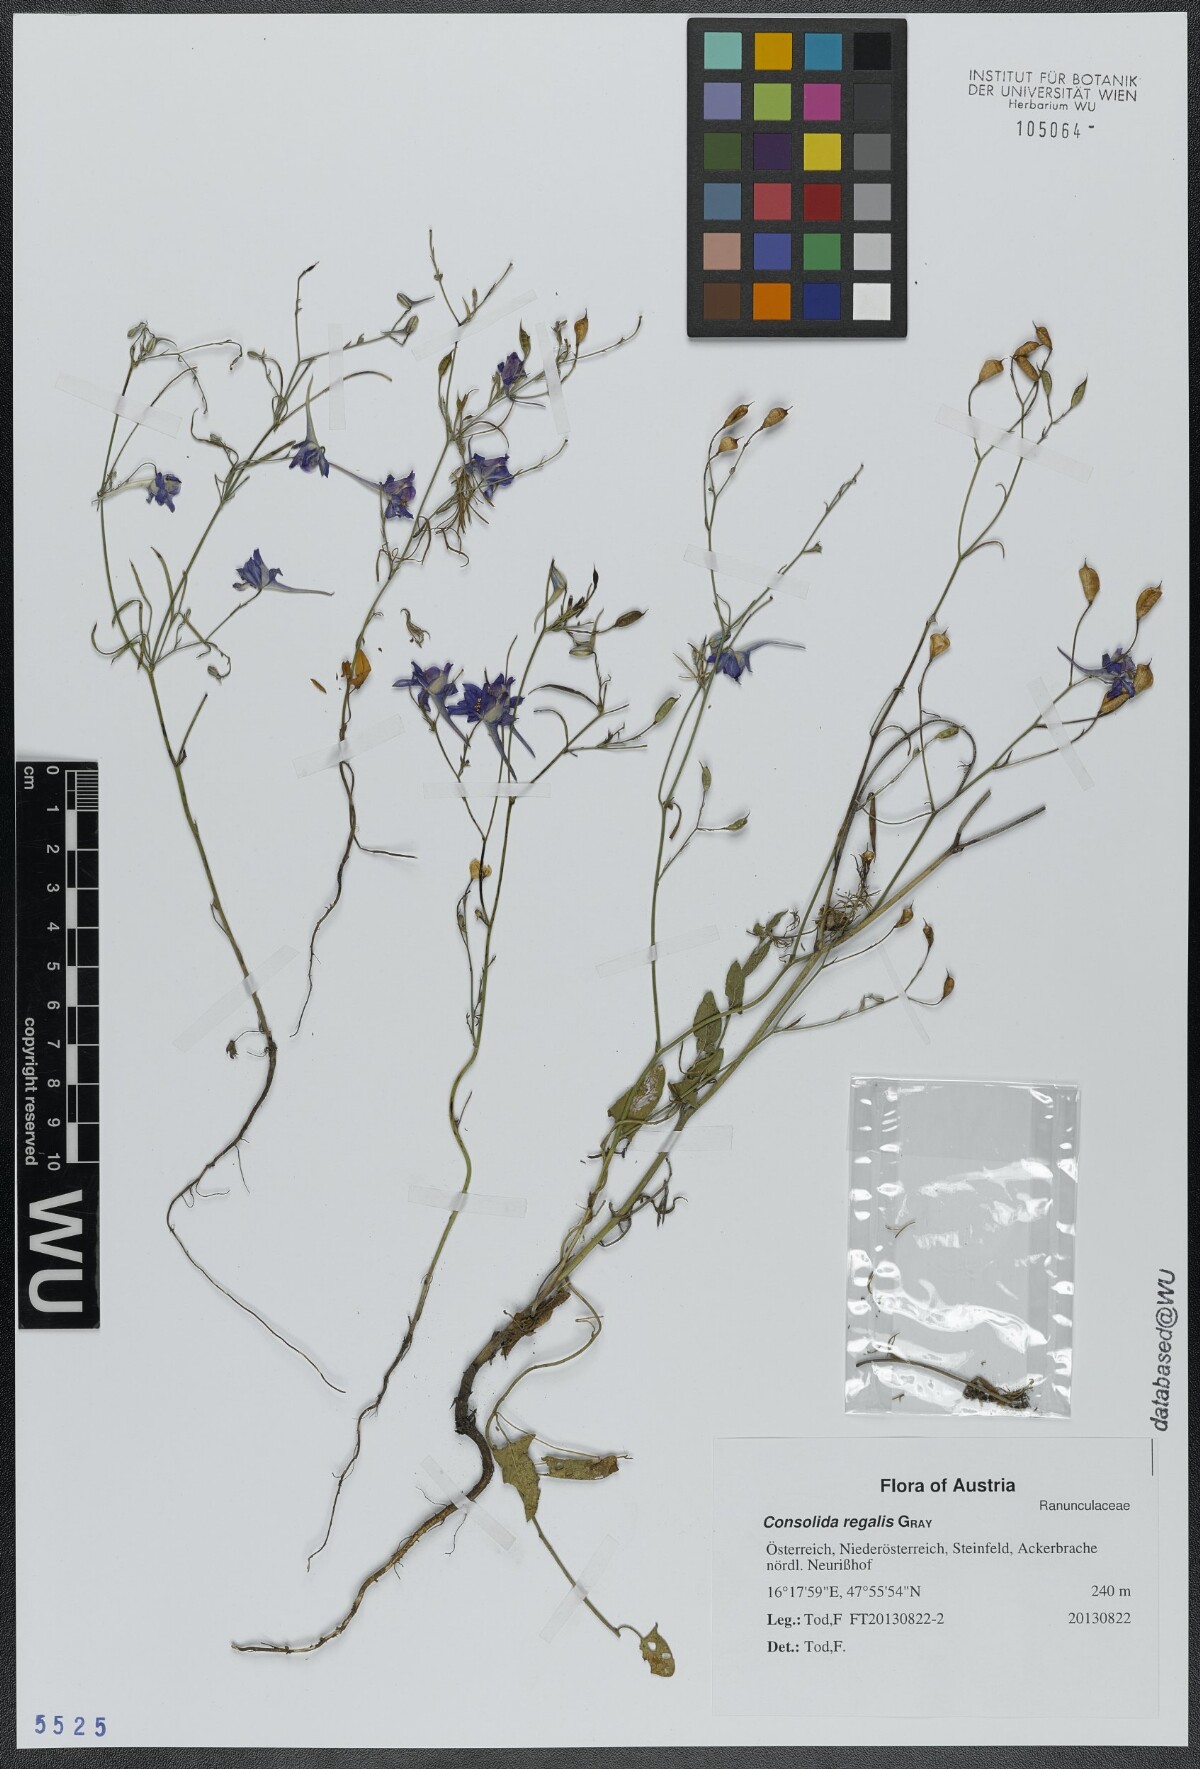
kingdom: Plantae
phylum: Tracheophyta
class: Magnoliopsida
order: Ranunculales
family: Ranunculaceae
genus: Delphinium
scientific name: Delphinium consolida
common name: Branching larkspur
